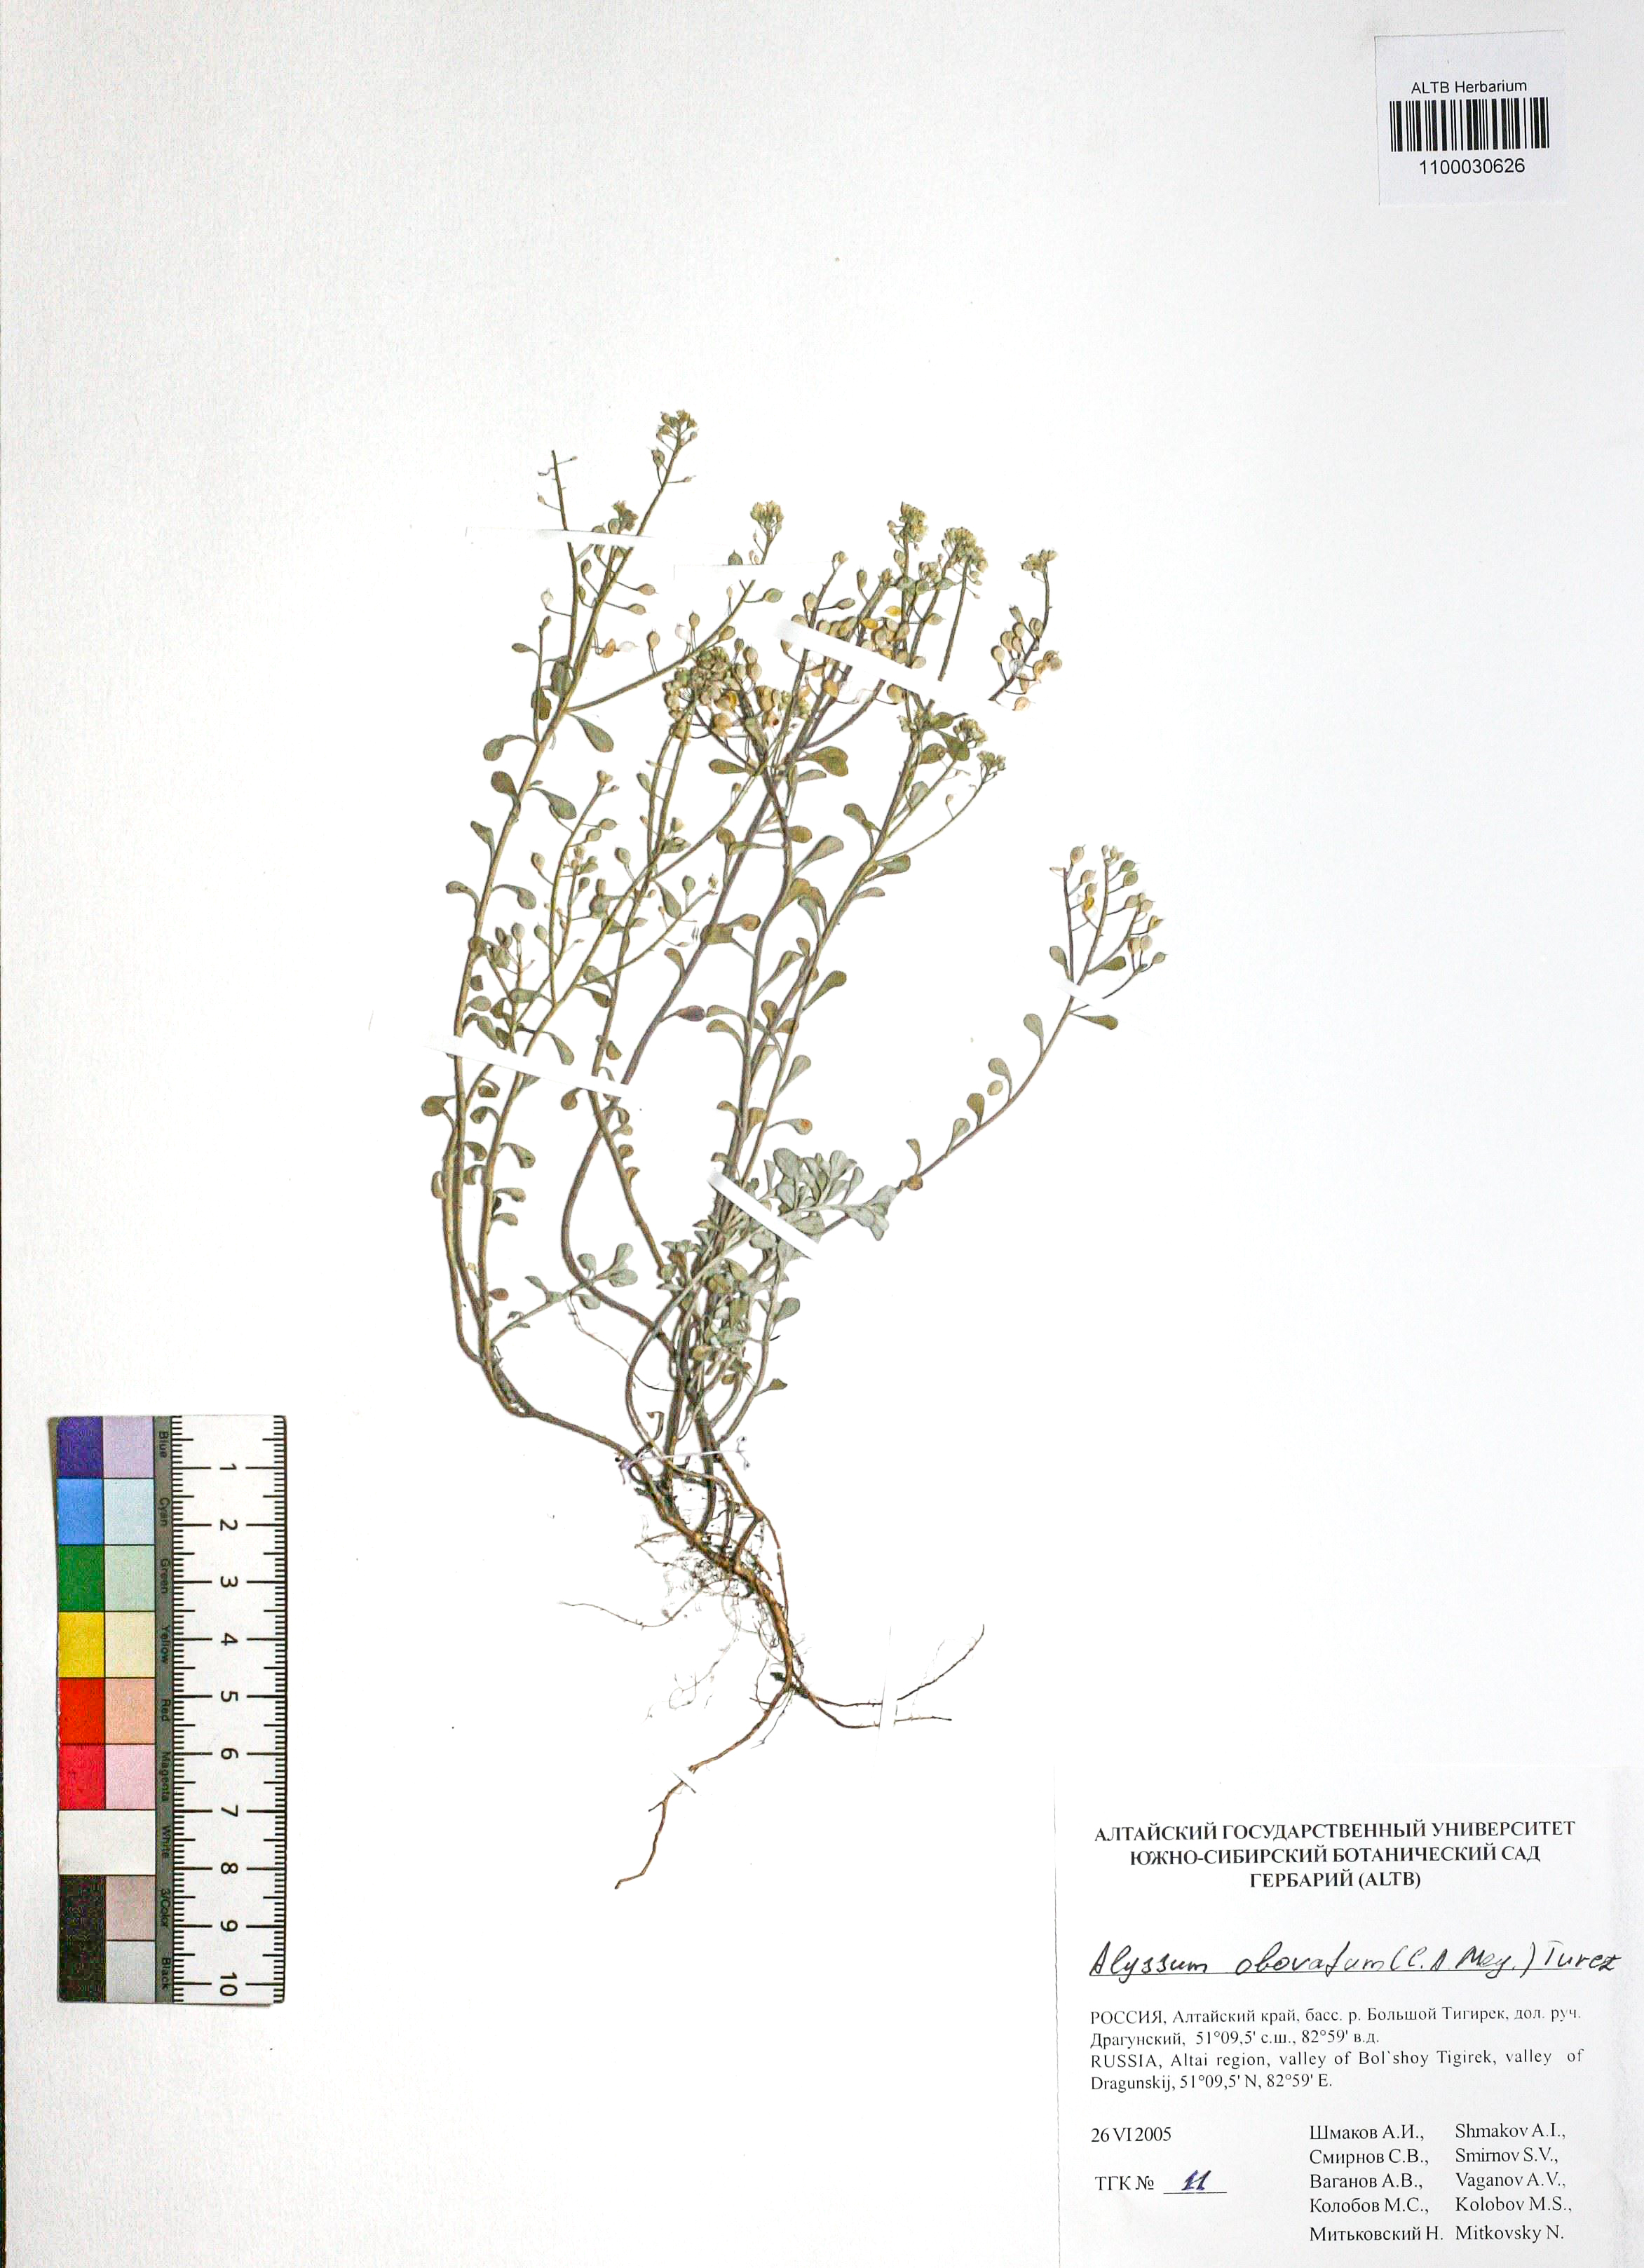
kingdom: Plantae
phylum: Tracheophyta
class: Magnoliopsida
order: Brassicales
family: Brassicaceae
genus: Odontarrhena
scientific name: Odontarrhena obovata
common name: American alyssum
